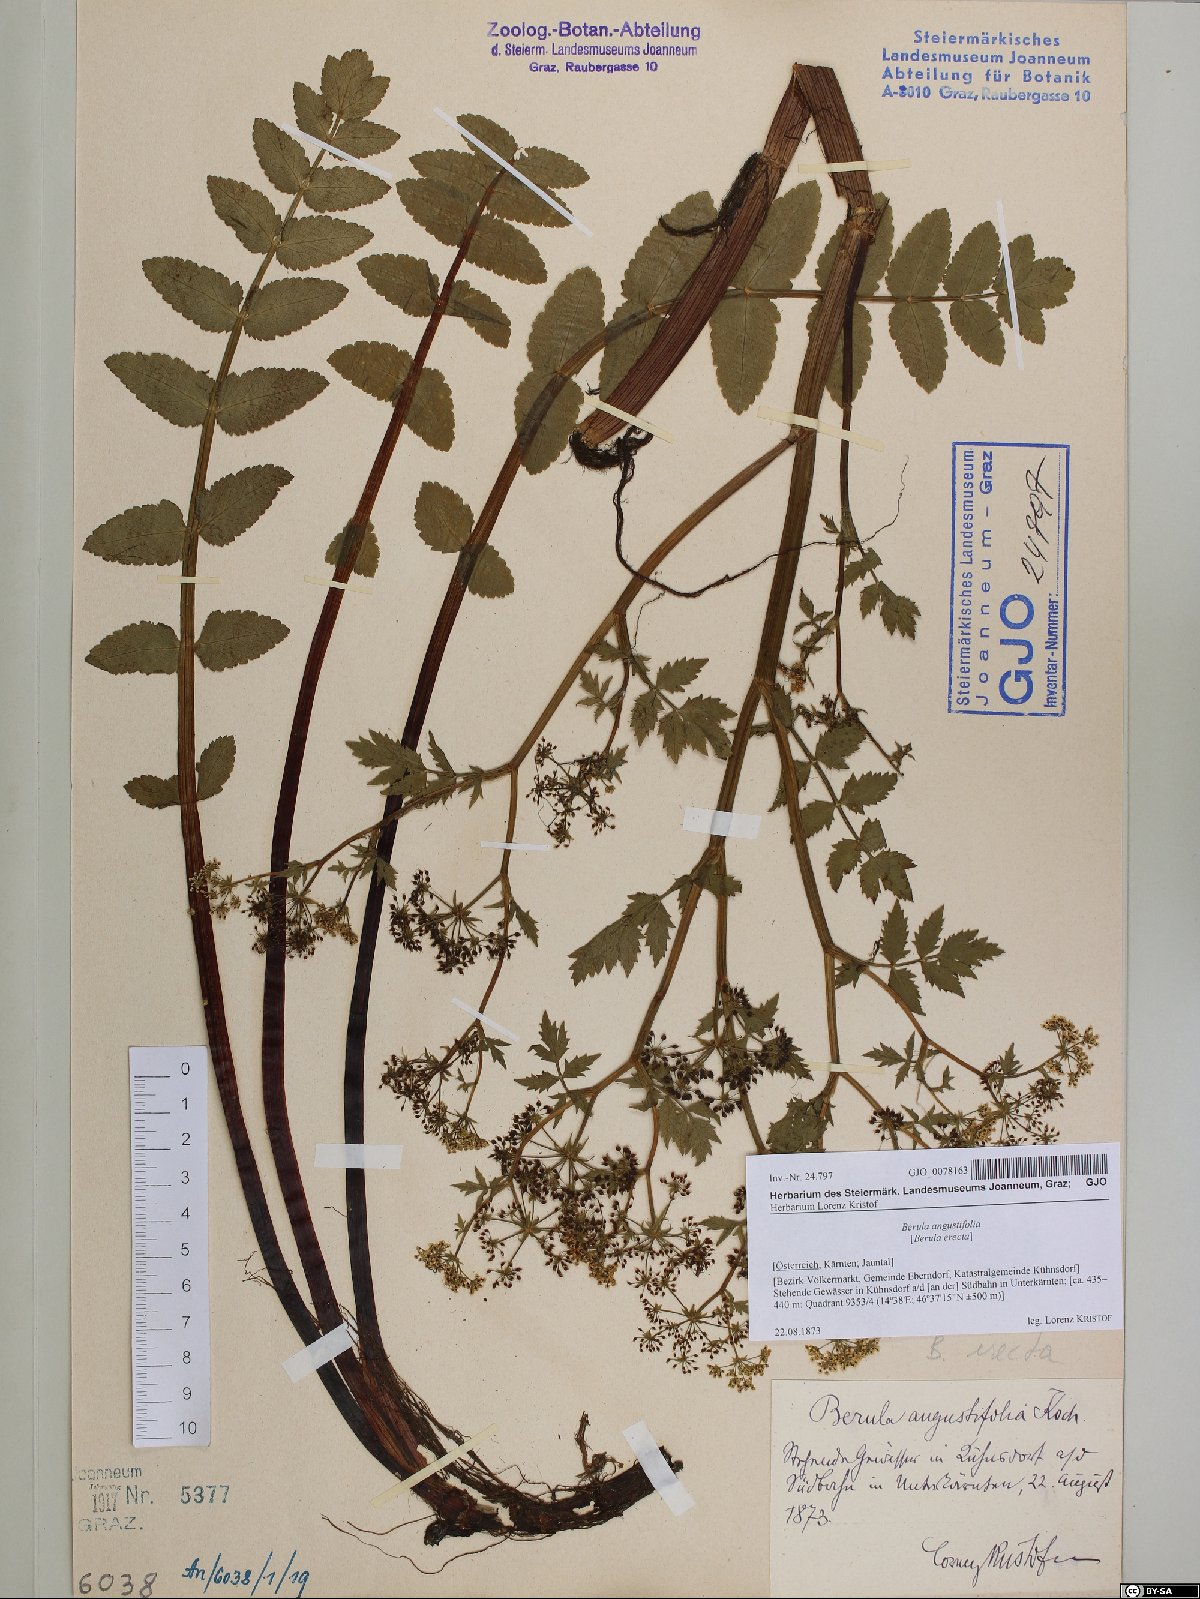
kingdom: Plantae
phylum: Tracheophyta
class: Magnoliopsida
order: Apiales
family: Apiaceae
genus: Berula
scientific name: Berula erecta
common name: Lesser water-parsnip
